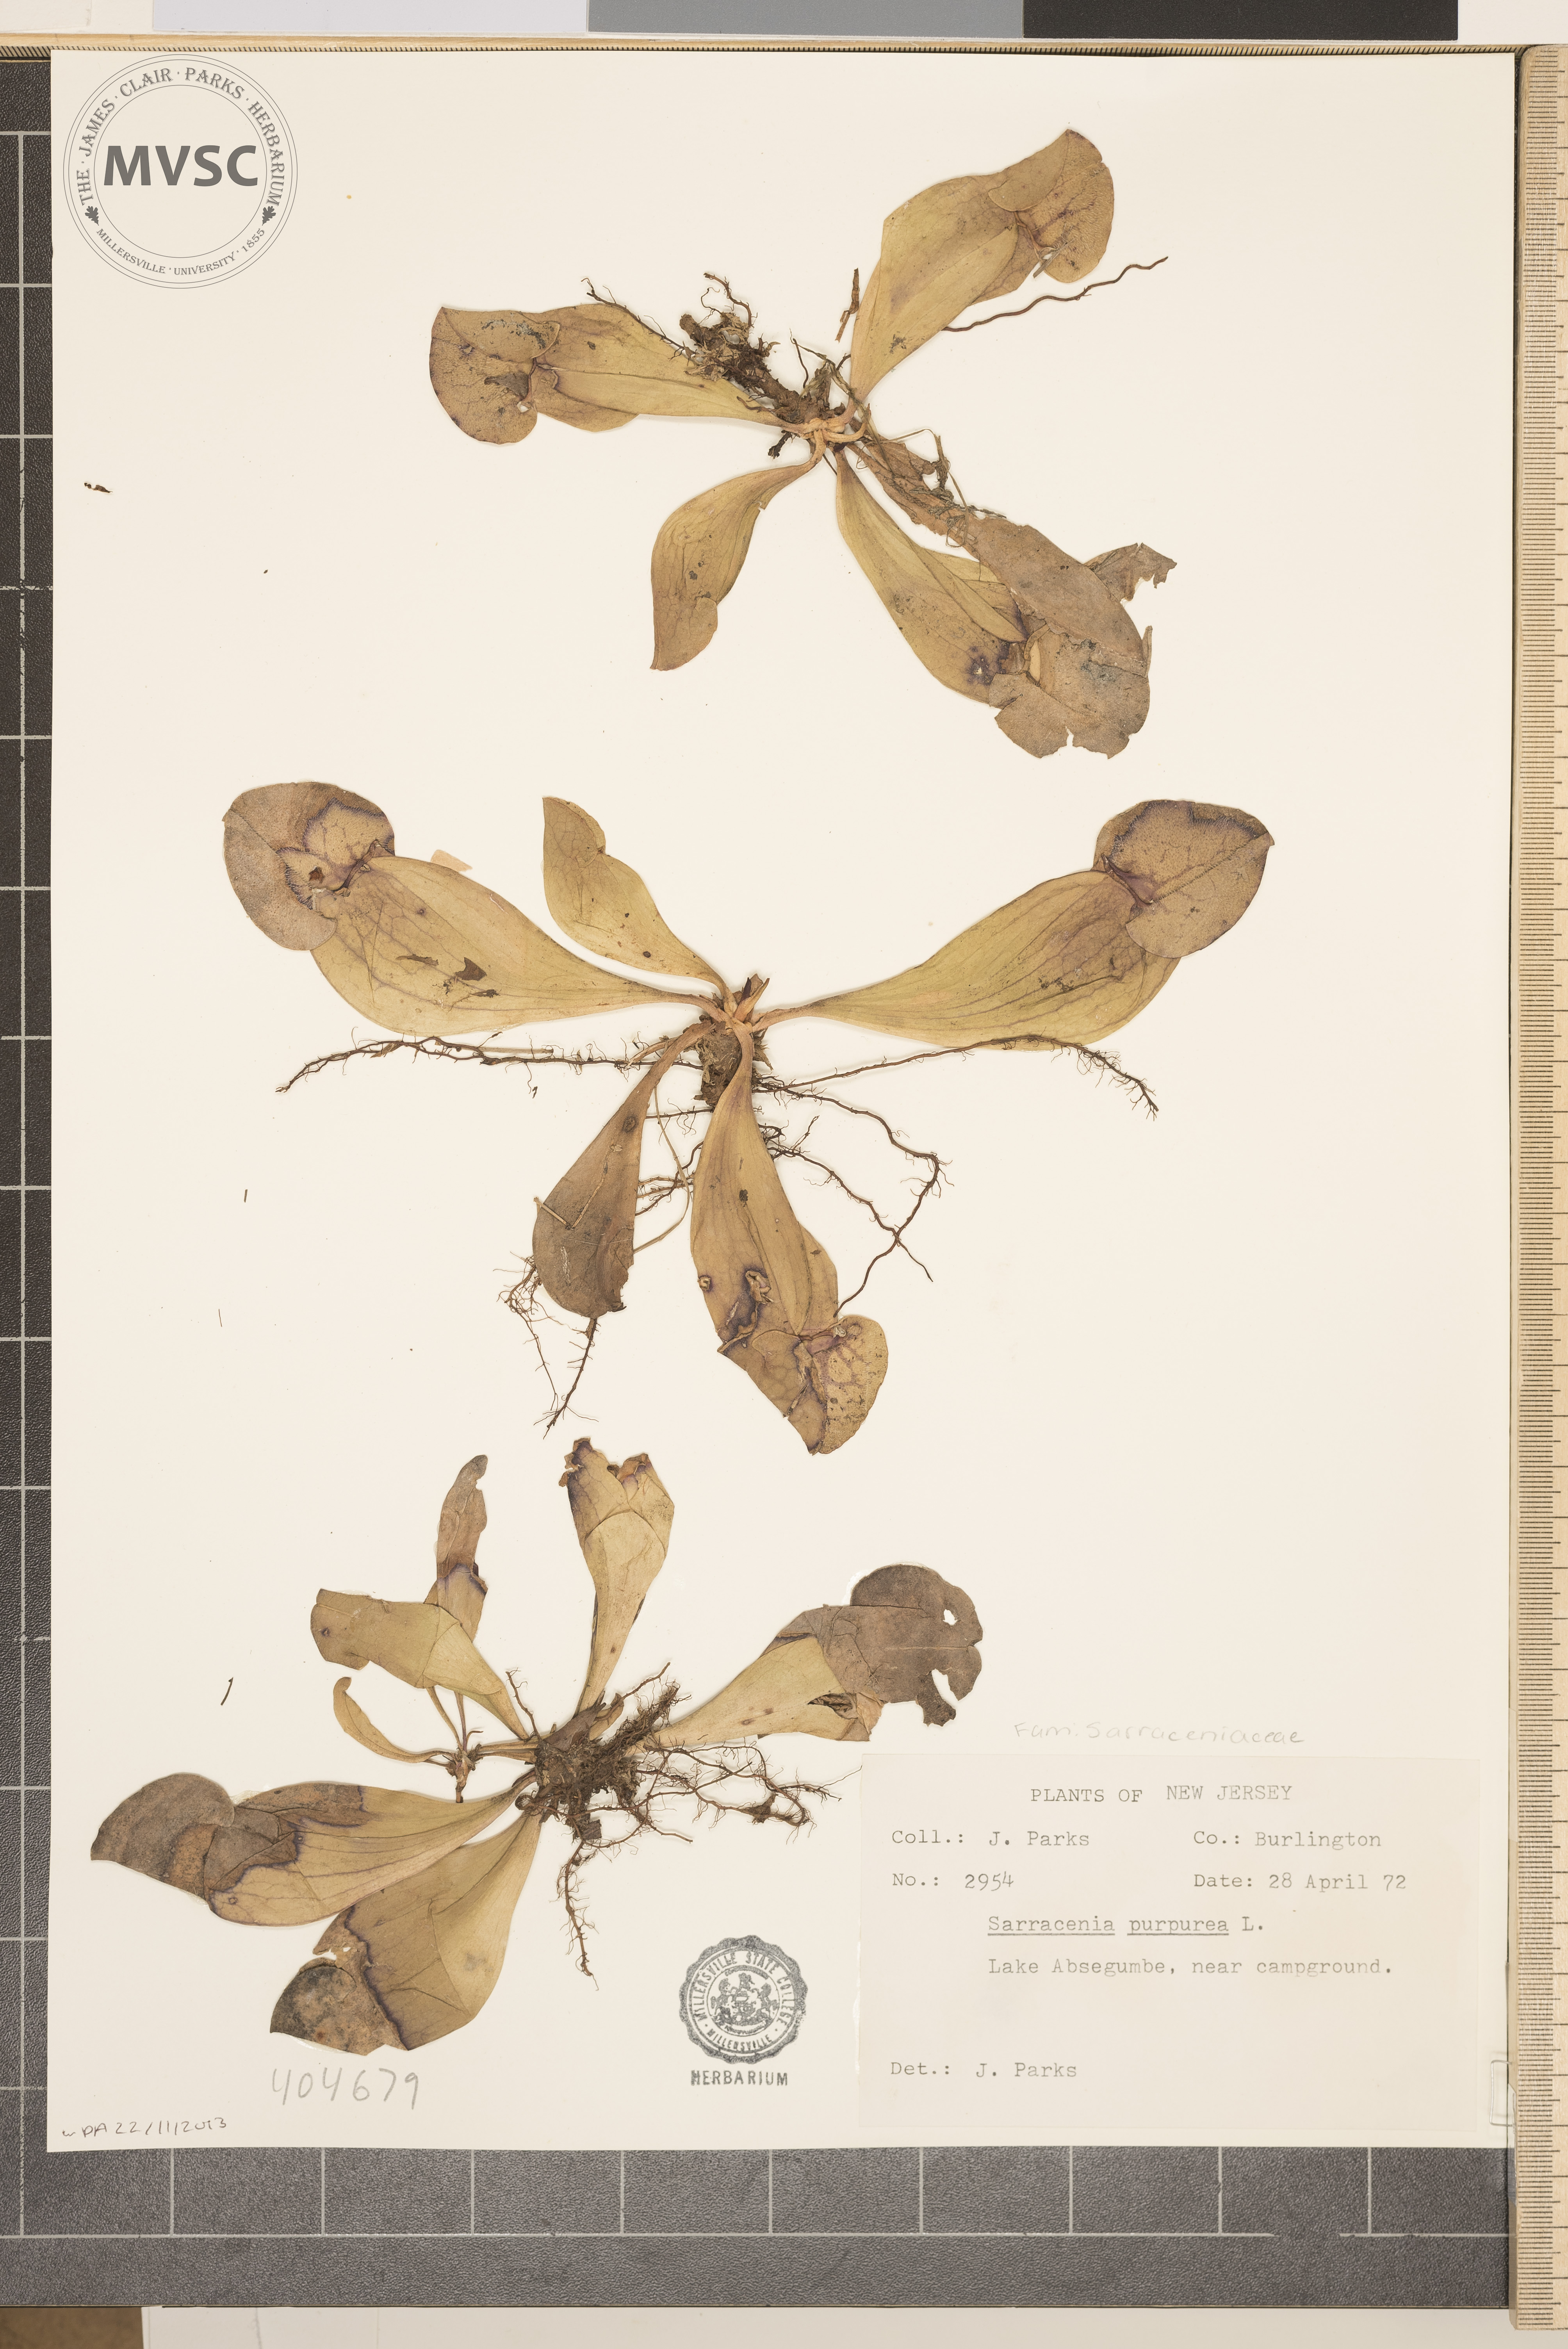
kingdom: Plantae
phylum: Tracheophyta
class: Magnoliopsida
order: Ericales
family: Sarraceniaceae
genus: Sarracenia
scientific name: Sarracenia purpurea
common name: Pitcherplant
